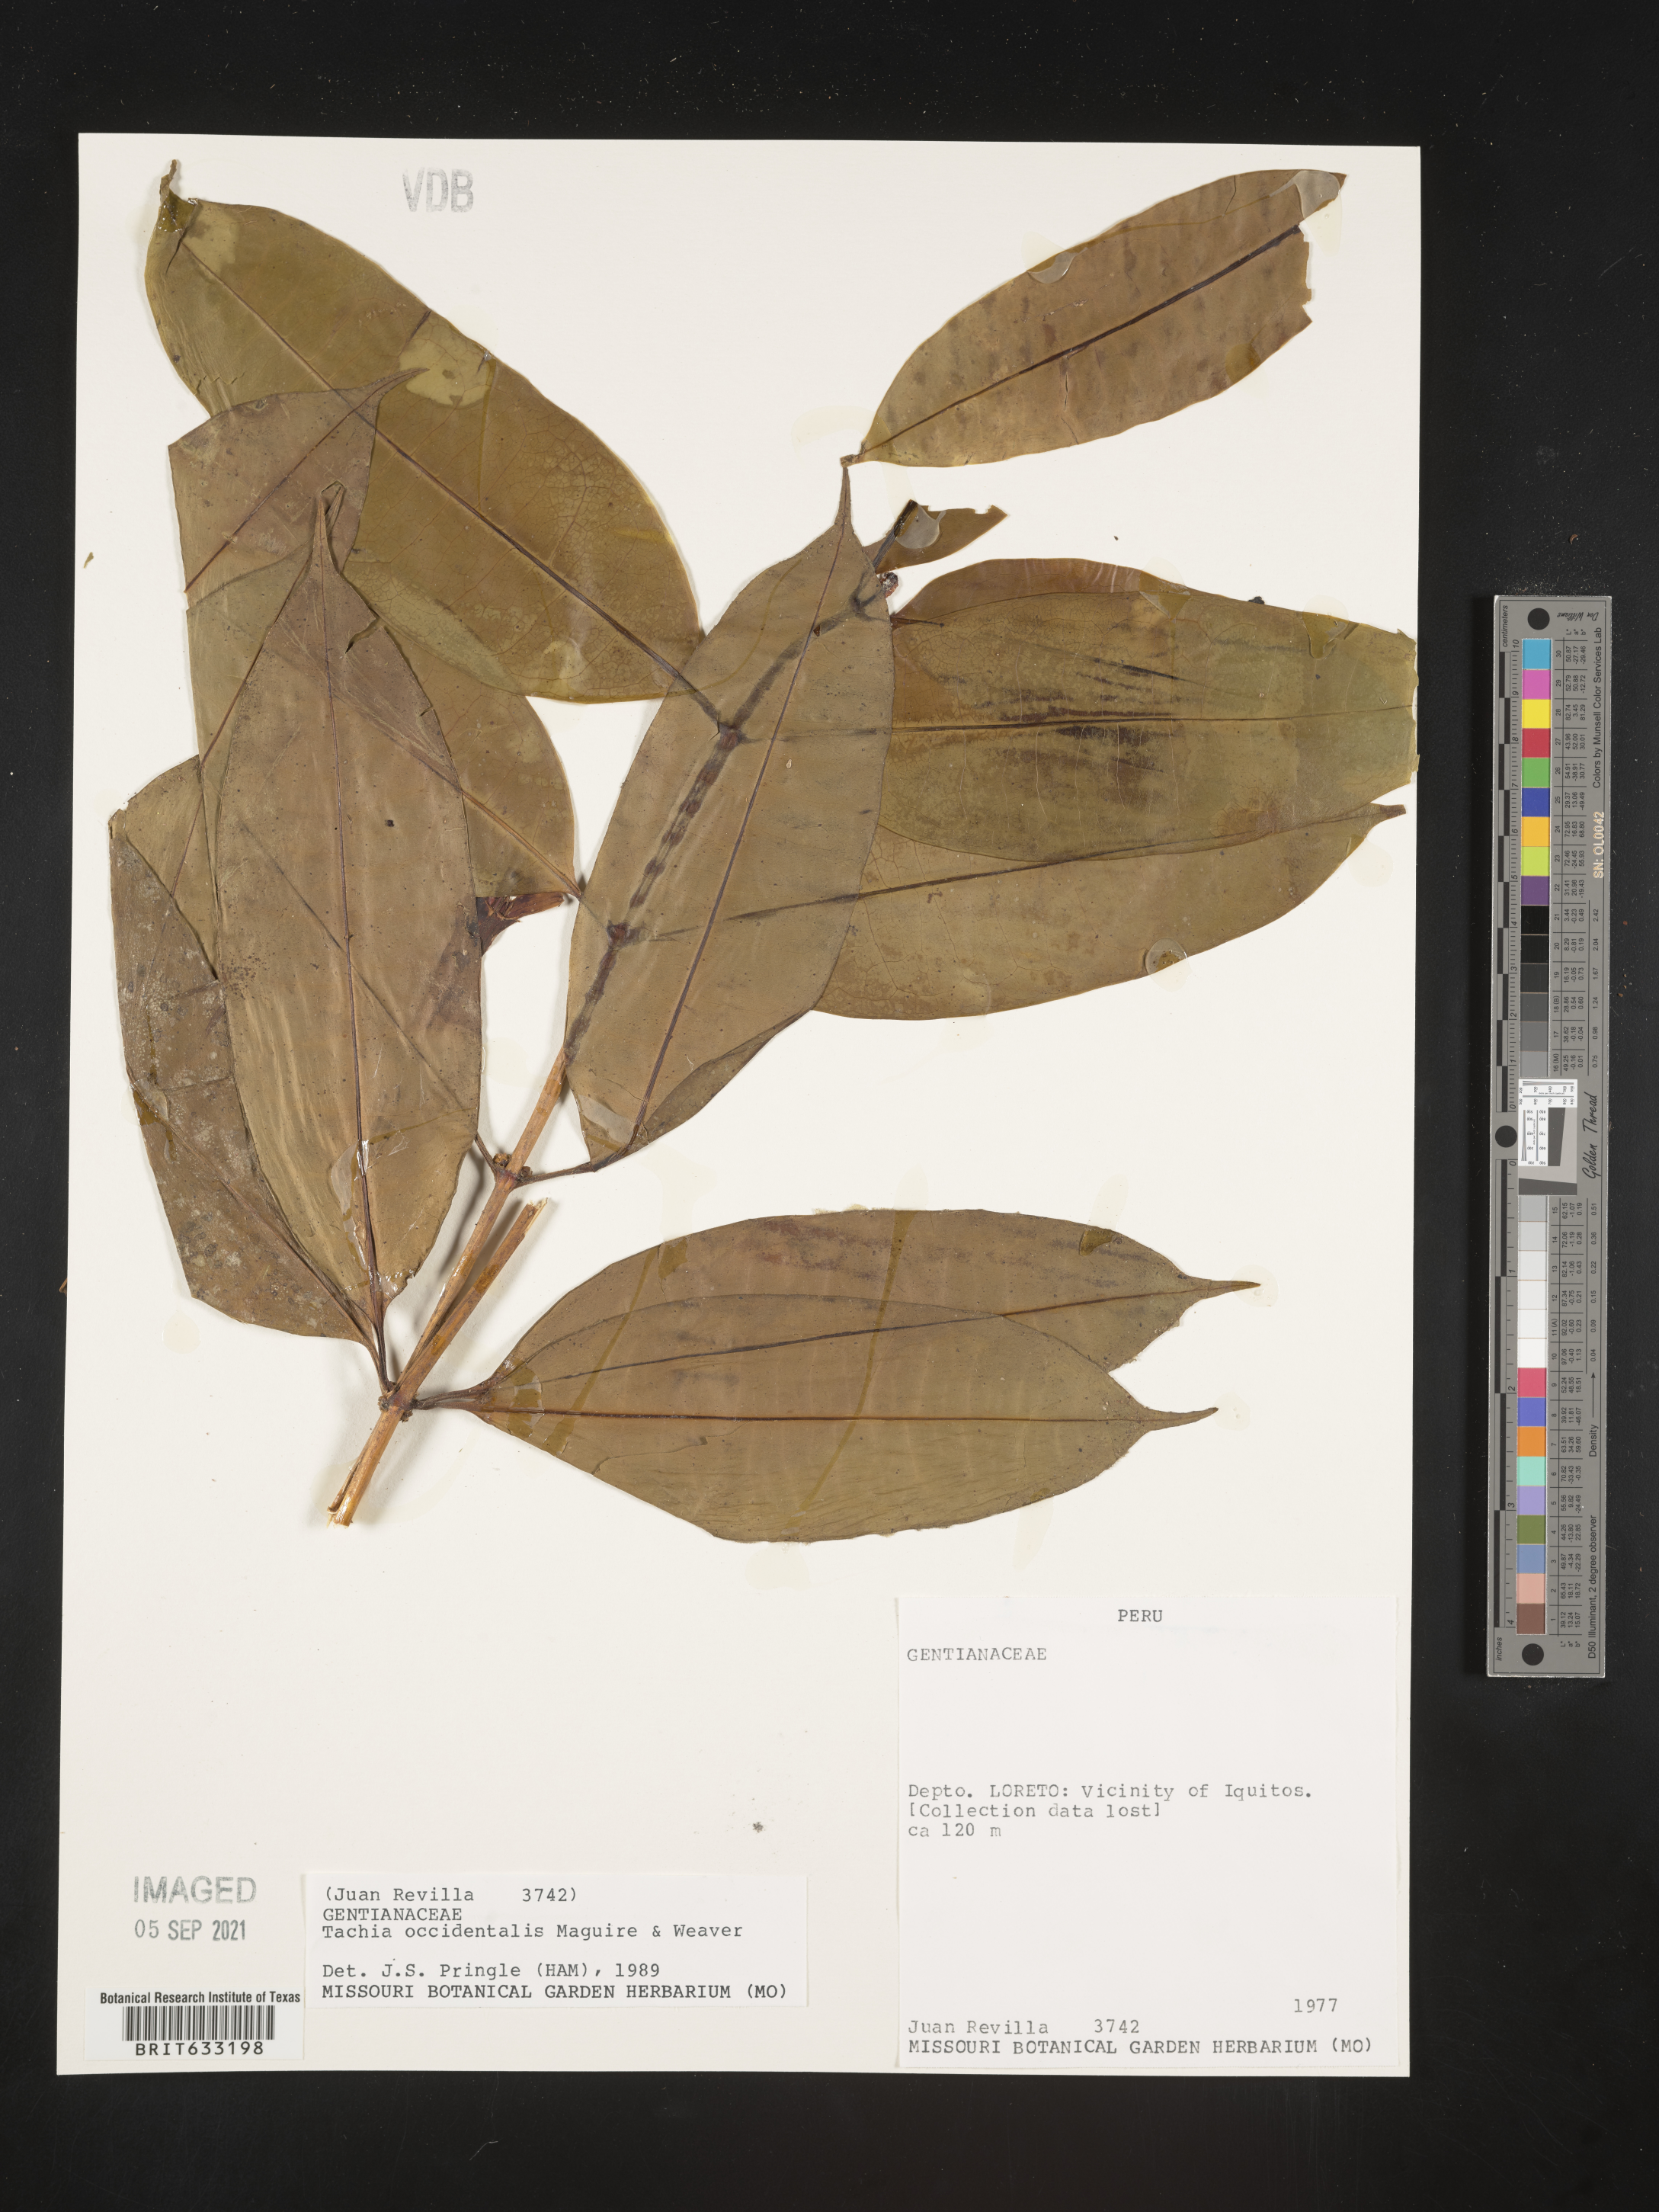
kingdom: Plantae
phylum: Tracheophyta
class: Magnoliopsida
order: Gentianales
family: Gentianaceae
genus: Tachia
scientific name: Tachia
